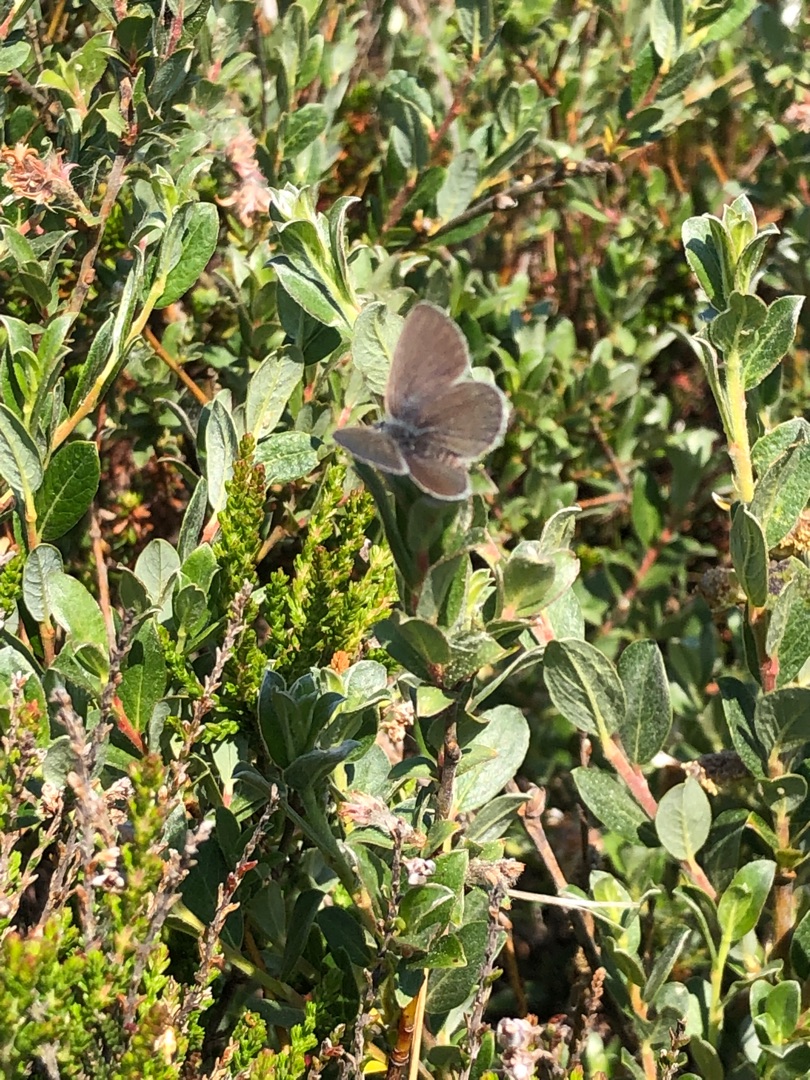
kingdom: Animalia
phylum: Arthropoda
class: Insecta
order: Lepidoptera
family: Lycaenidae
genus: Cupido
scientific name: Cupido minimus
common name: Dværgblåfugl
